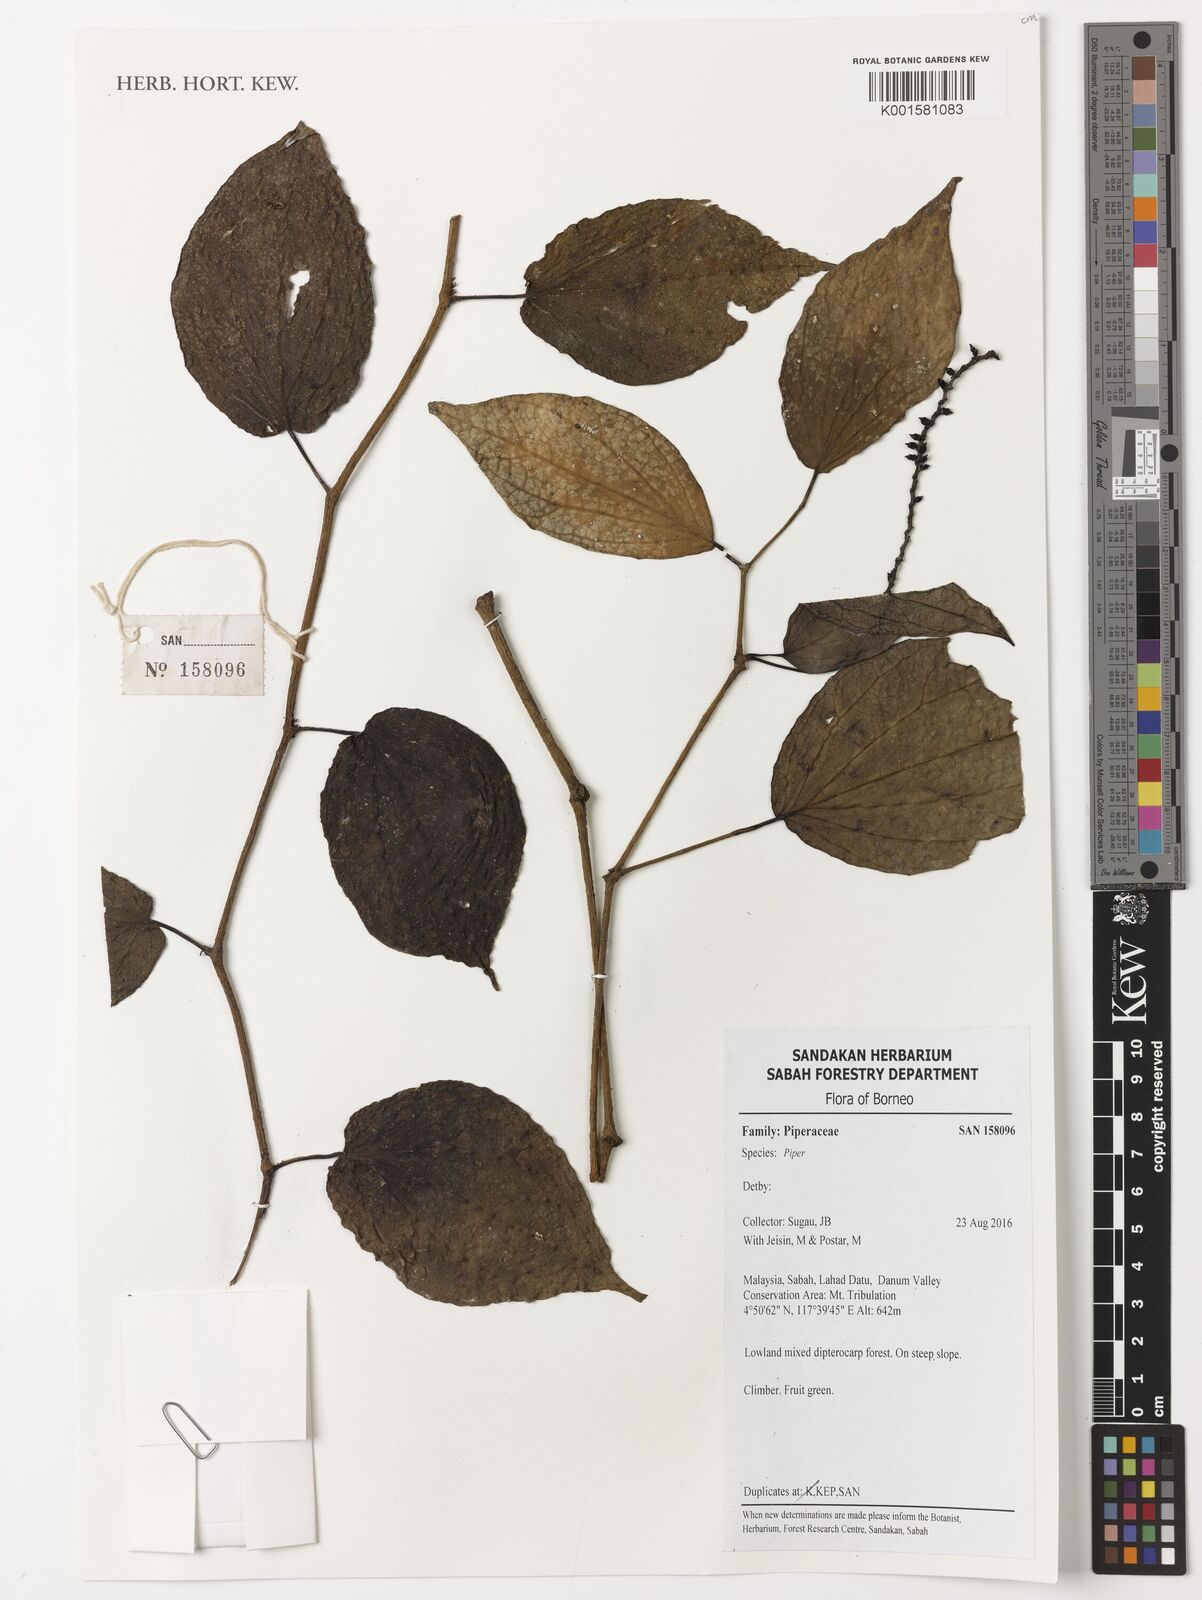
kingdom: Plantae
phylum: Tracheophyta
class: Magnoliopsida
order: Piperales
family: Piperaceae
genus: Piper
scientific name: Piper
